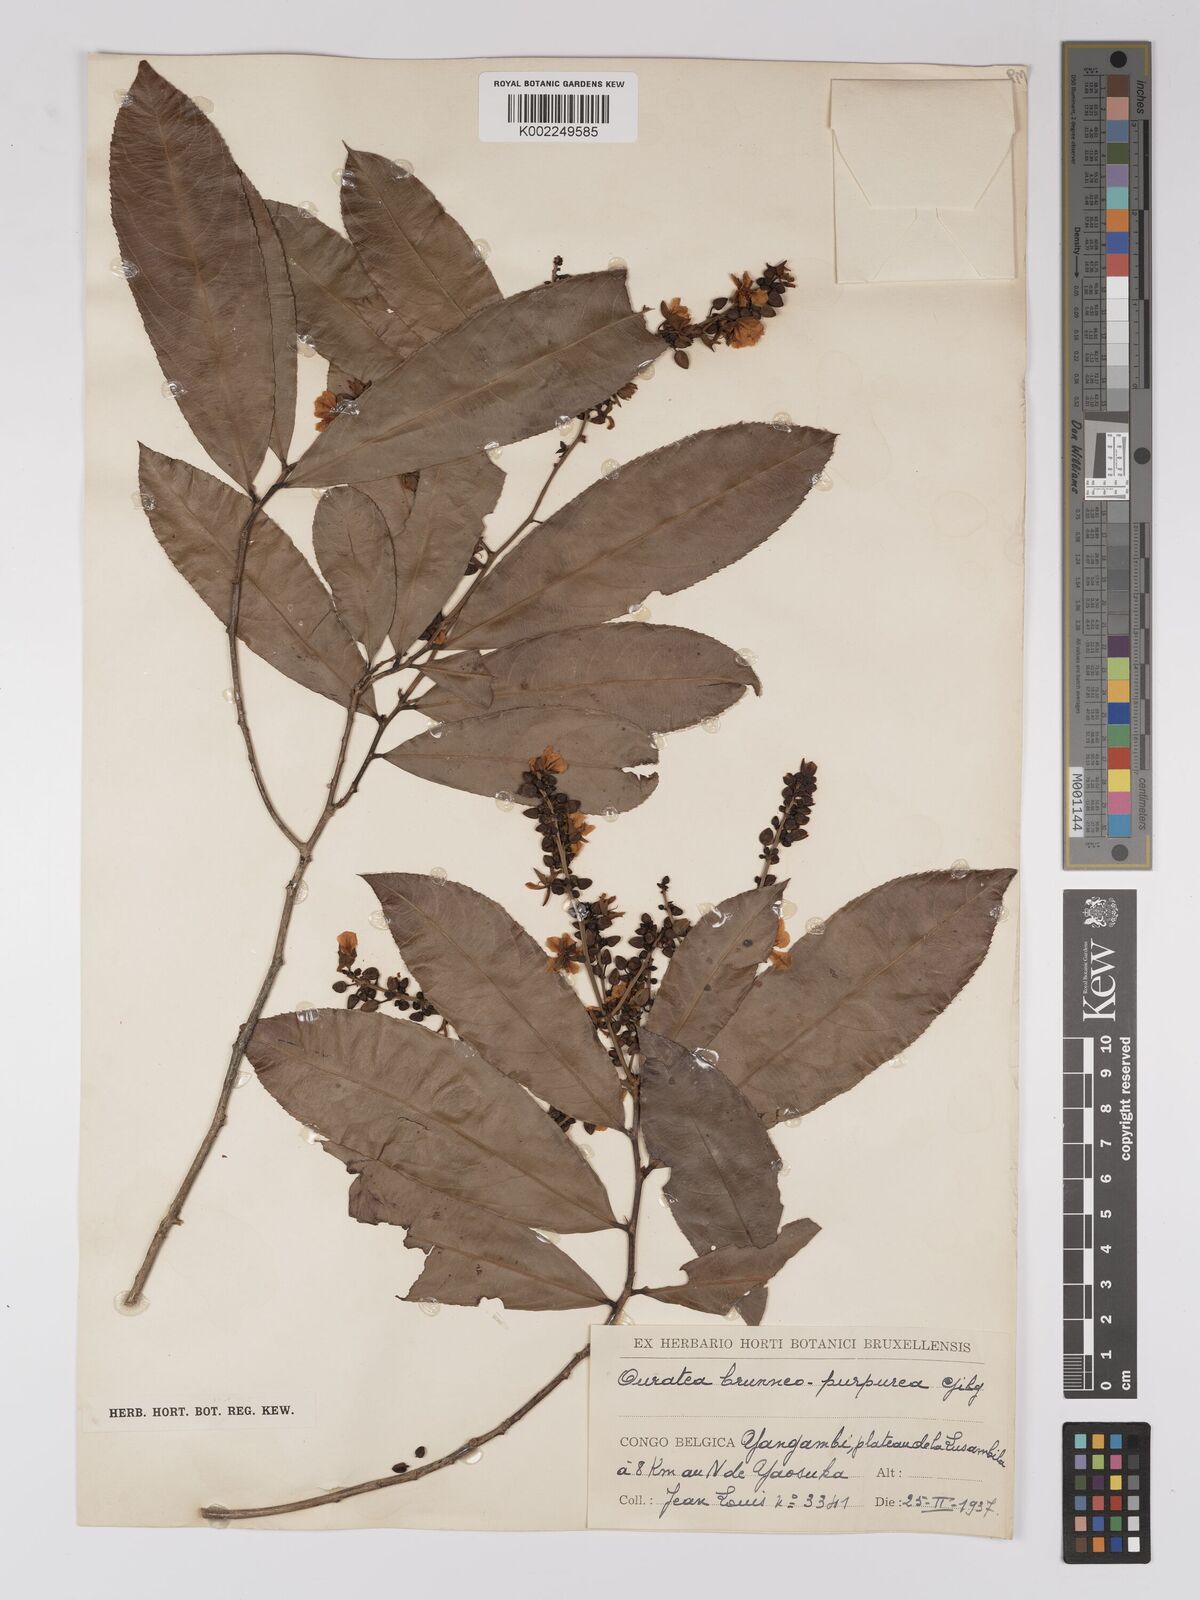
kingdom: Plantae
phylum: Tracheophyta
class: Magnoliopsida
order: Malpighiales
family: Ochnaceae
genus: Campylospermum
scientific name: Campylospermum reticulatum
